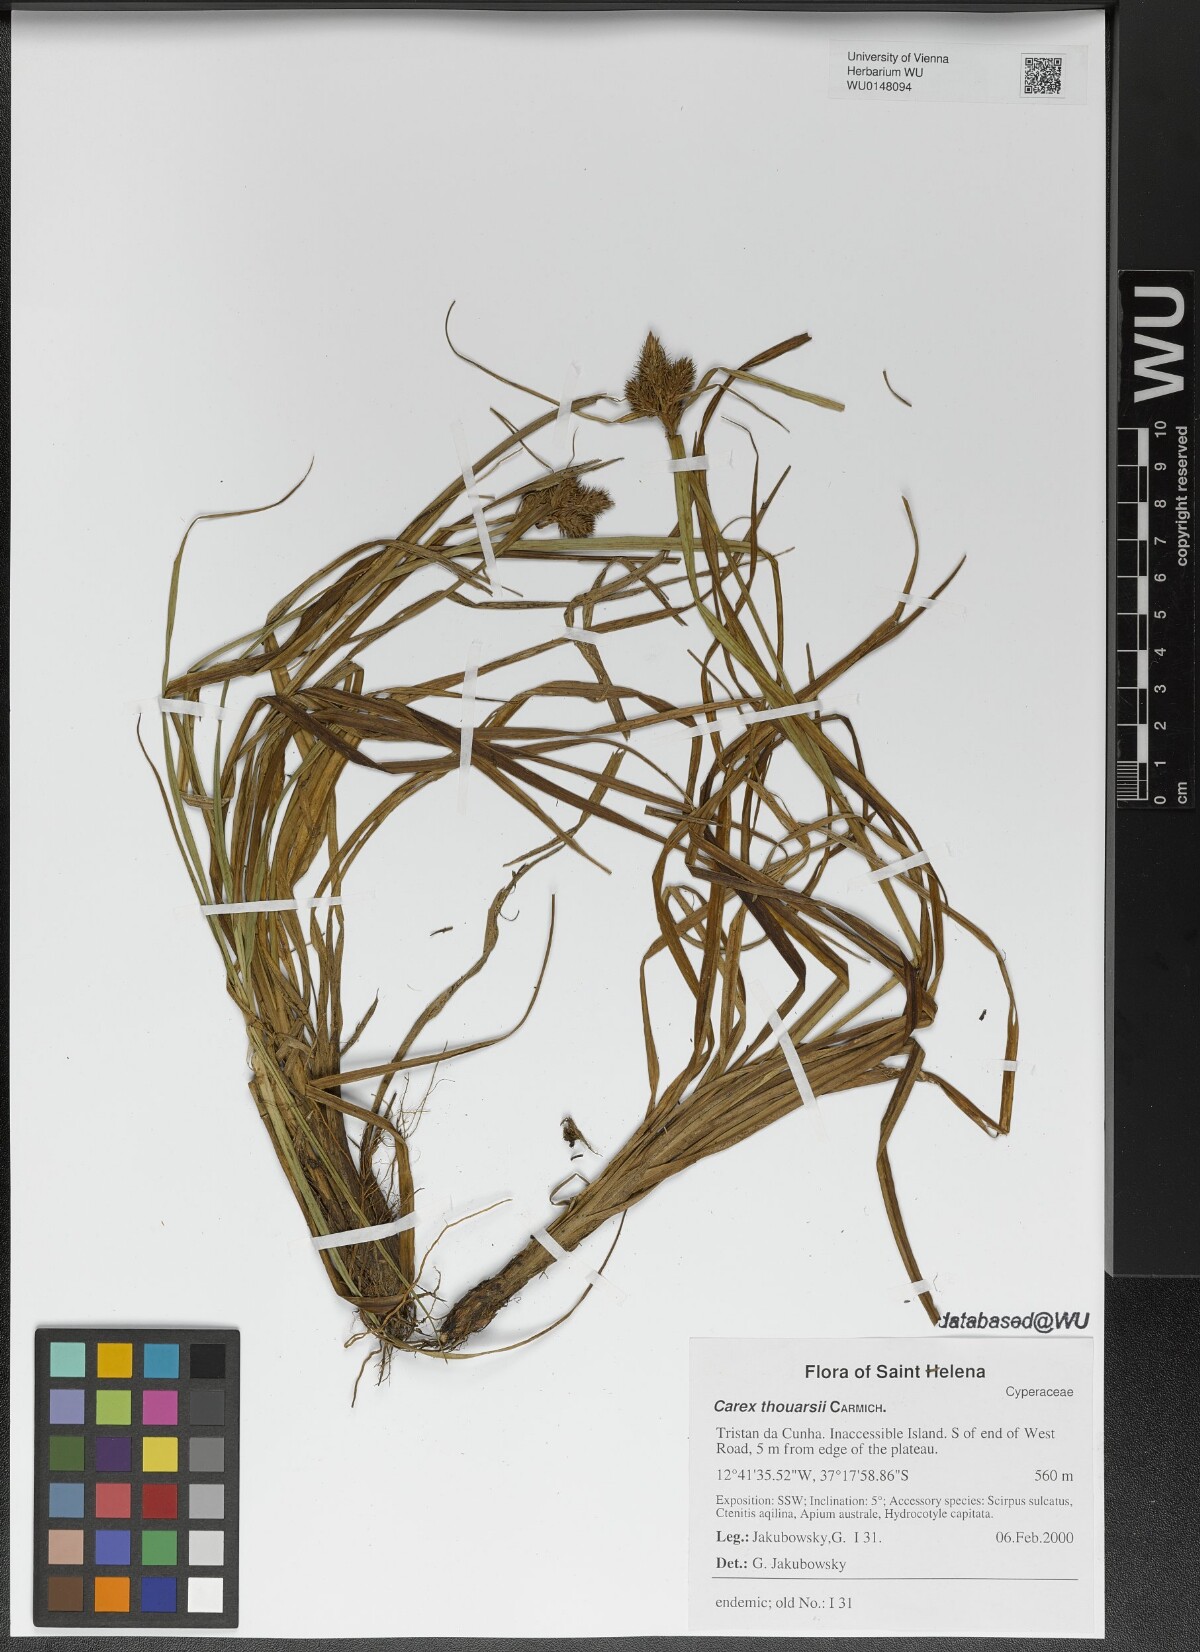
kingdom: Plantae
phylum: Tracheophyta
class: Liliopsida
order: Poales
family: Cyperaceae
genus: Carex
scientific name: Carex thouarsii
